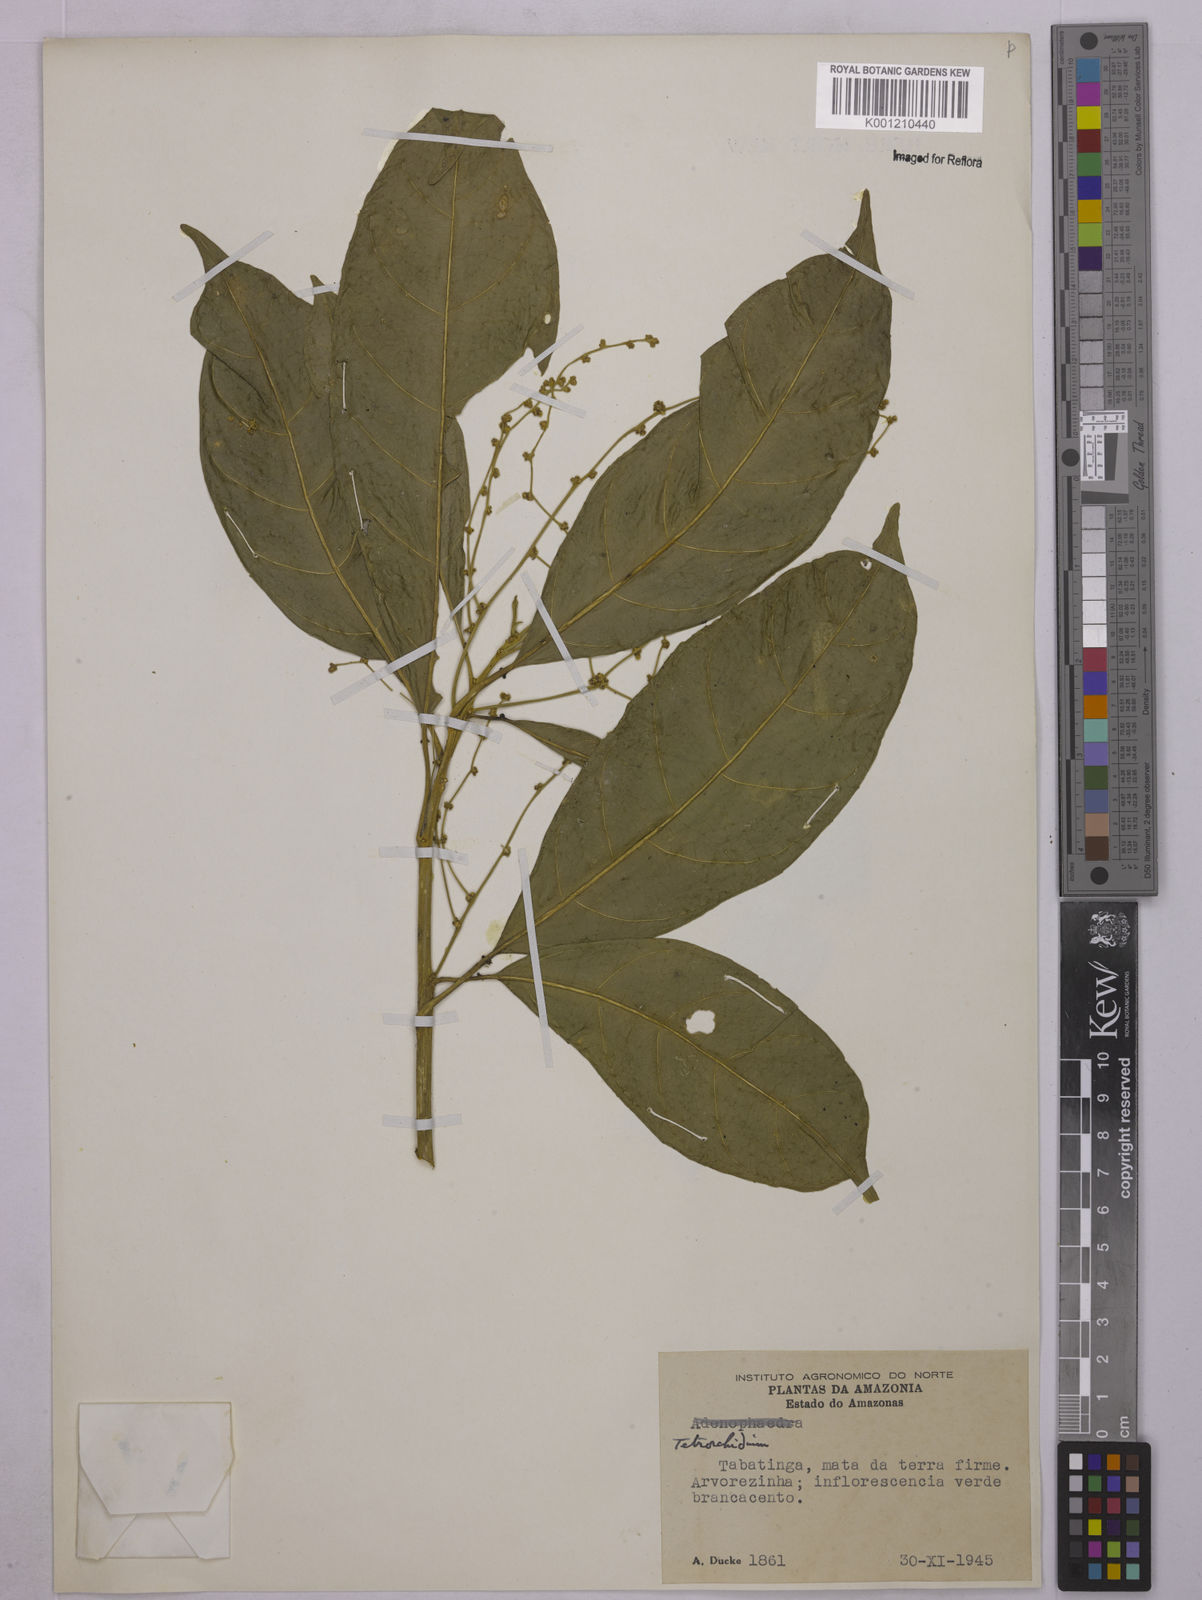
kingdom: Plantae
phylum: Tracheophyta
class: Magnoliopsida
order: Malpighiales
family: Euphorbiaceae
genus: Tetrorchidium
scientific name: Tetrorchidium
